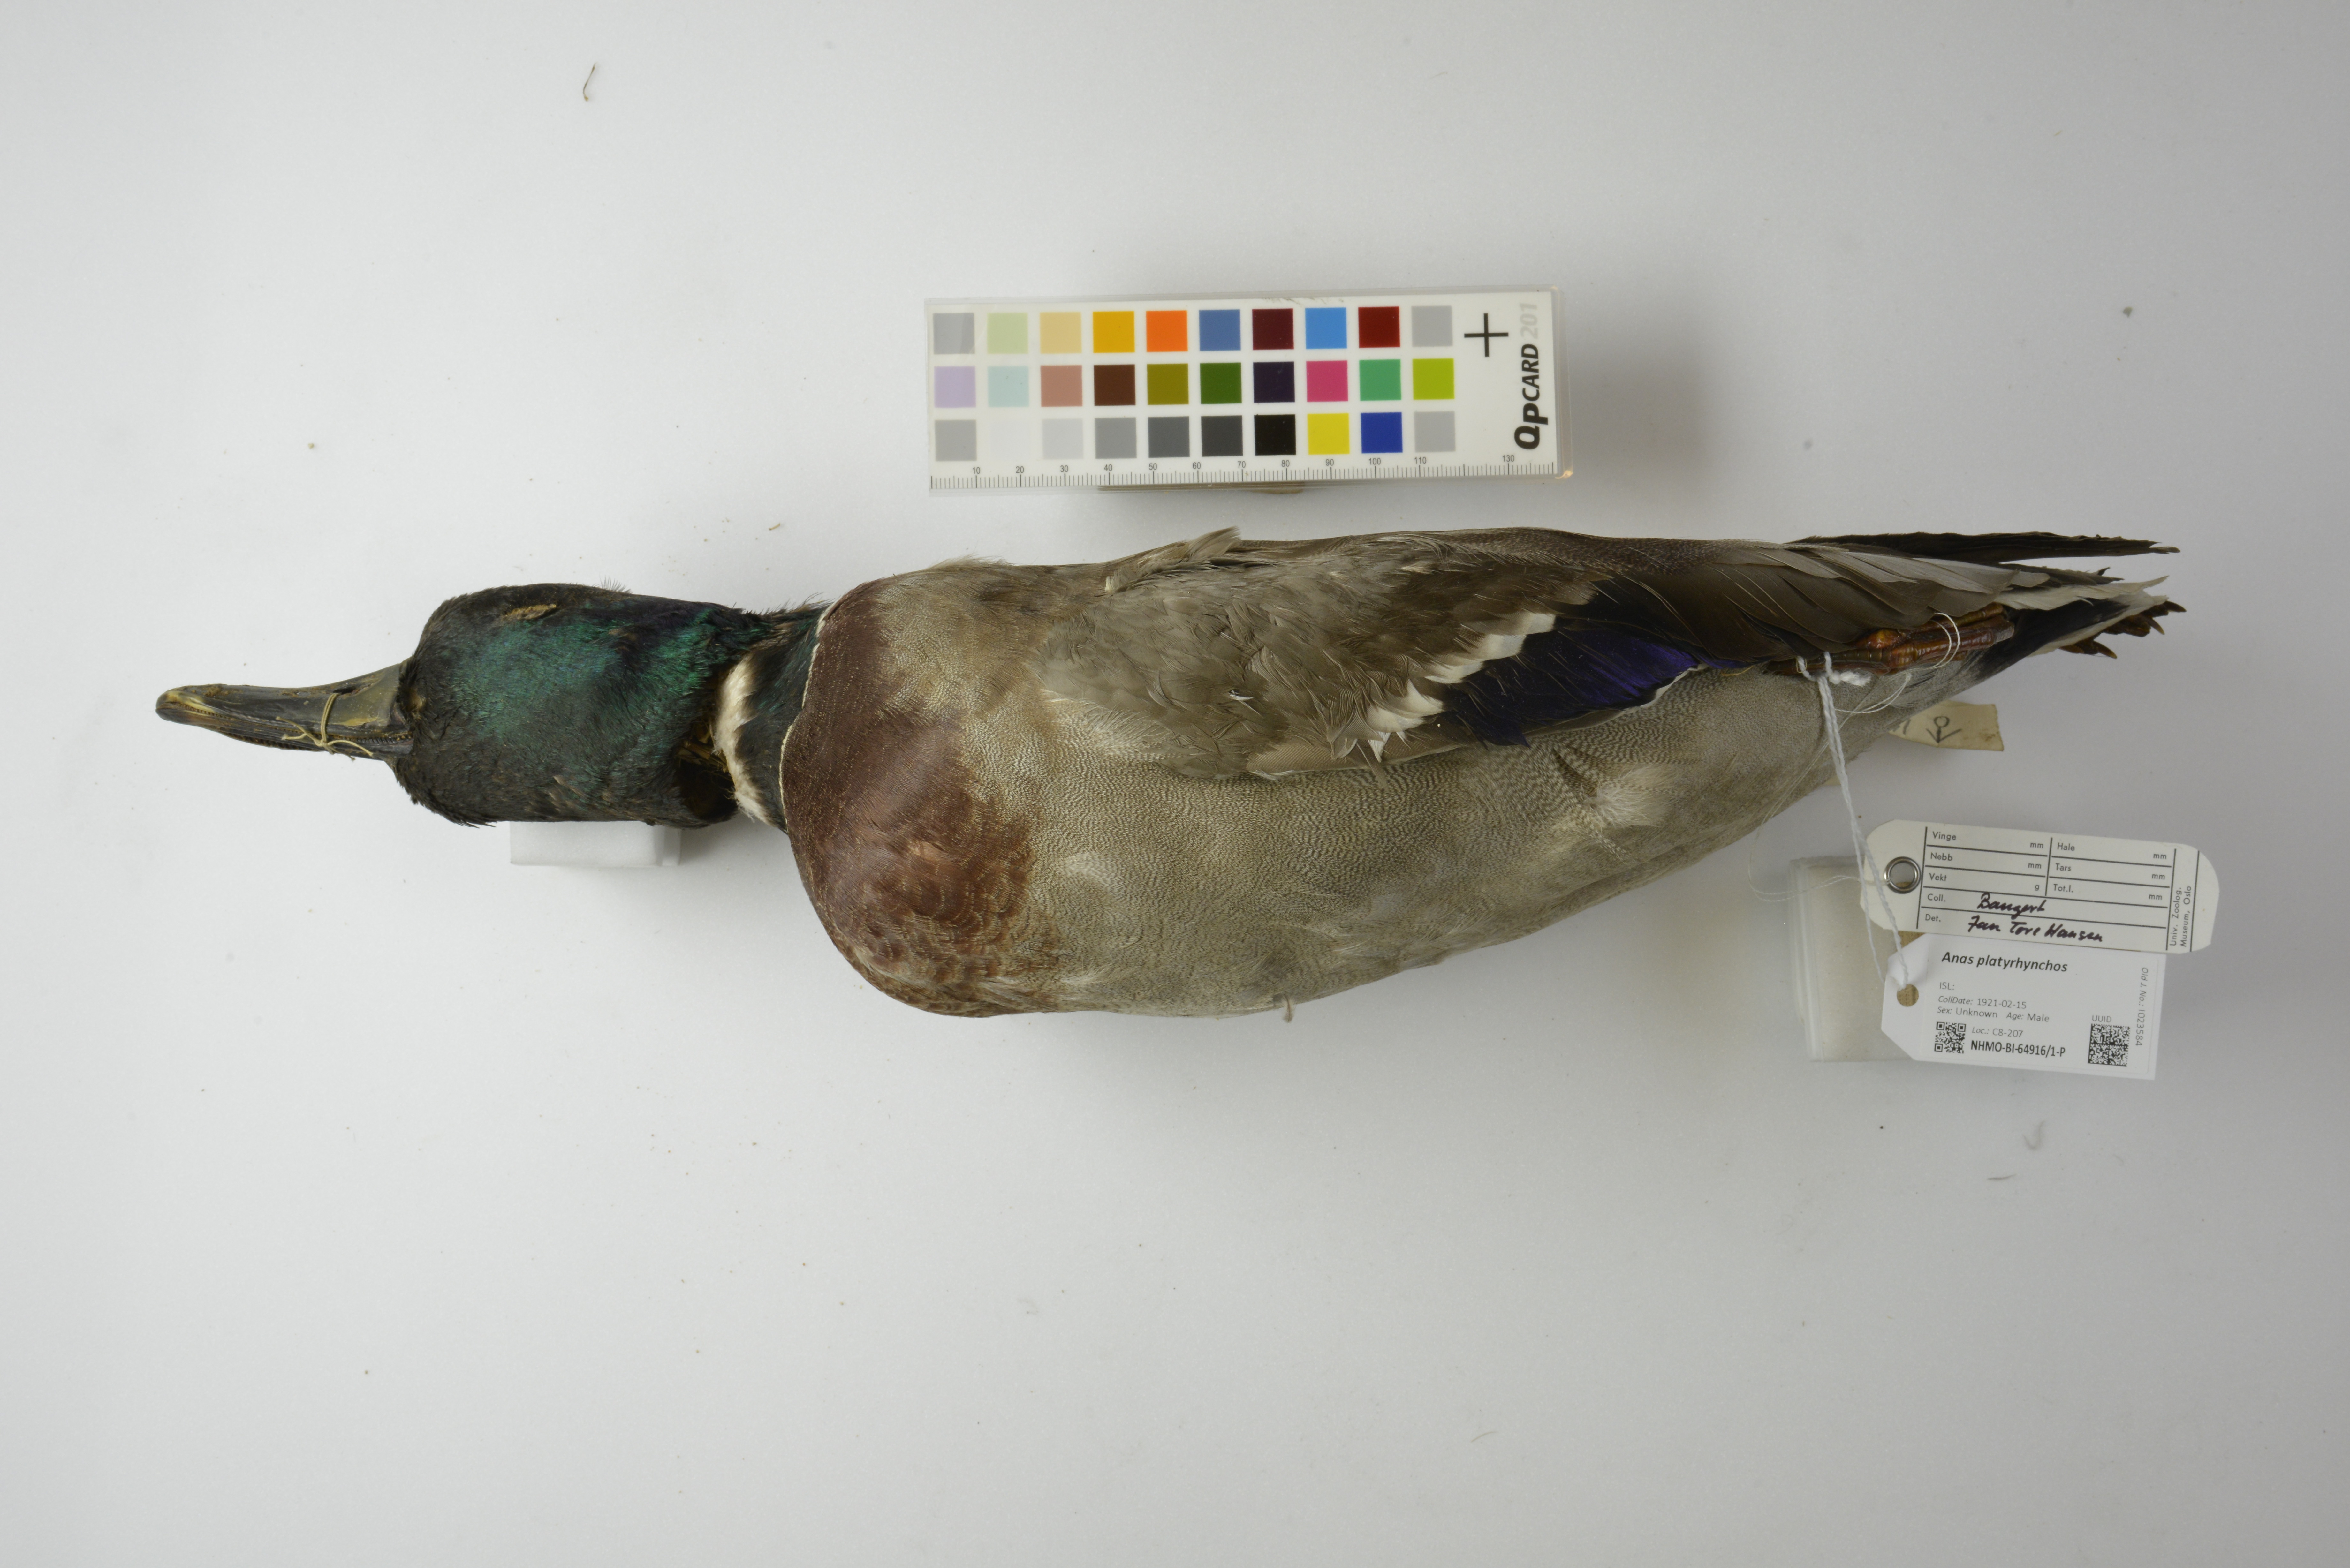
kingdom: Animalia
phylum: Chordata
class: Aves
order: Anseriformes
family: Anatidae
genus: Anas
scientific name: Anas platyrhynchos
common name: Mallard
